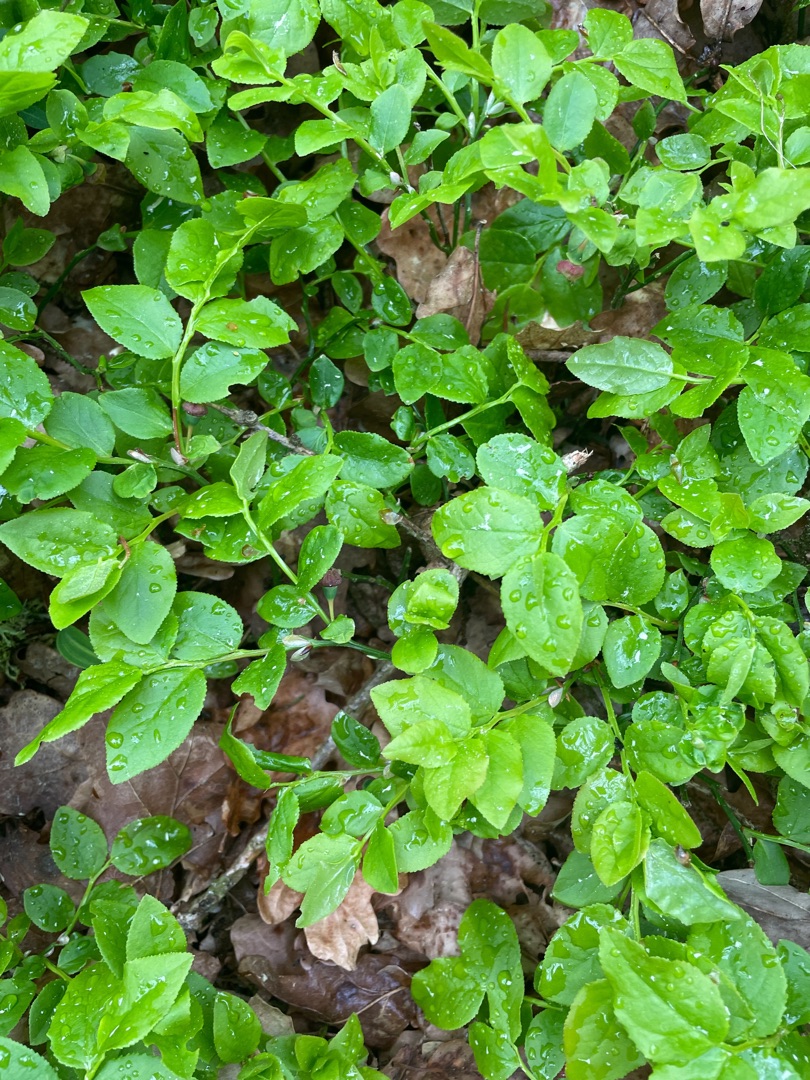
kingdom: Plantae
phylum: Tracheophyta
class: Magnoliopsida
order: Ericales
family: Ericaceae
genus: Vaccinium
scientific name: Vaccinium myrtillus
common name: Blåbær
